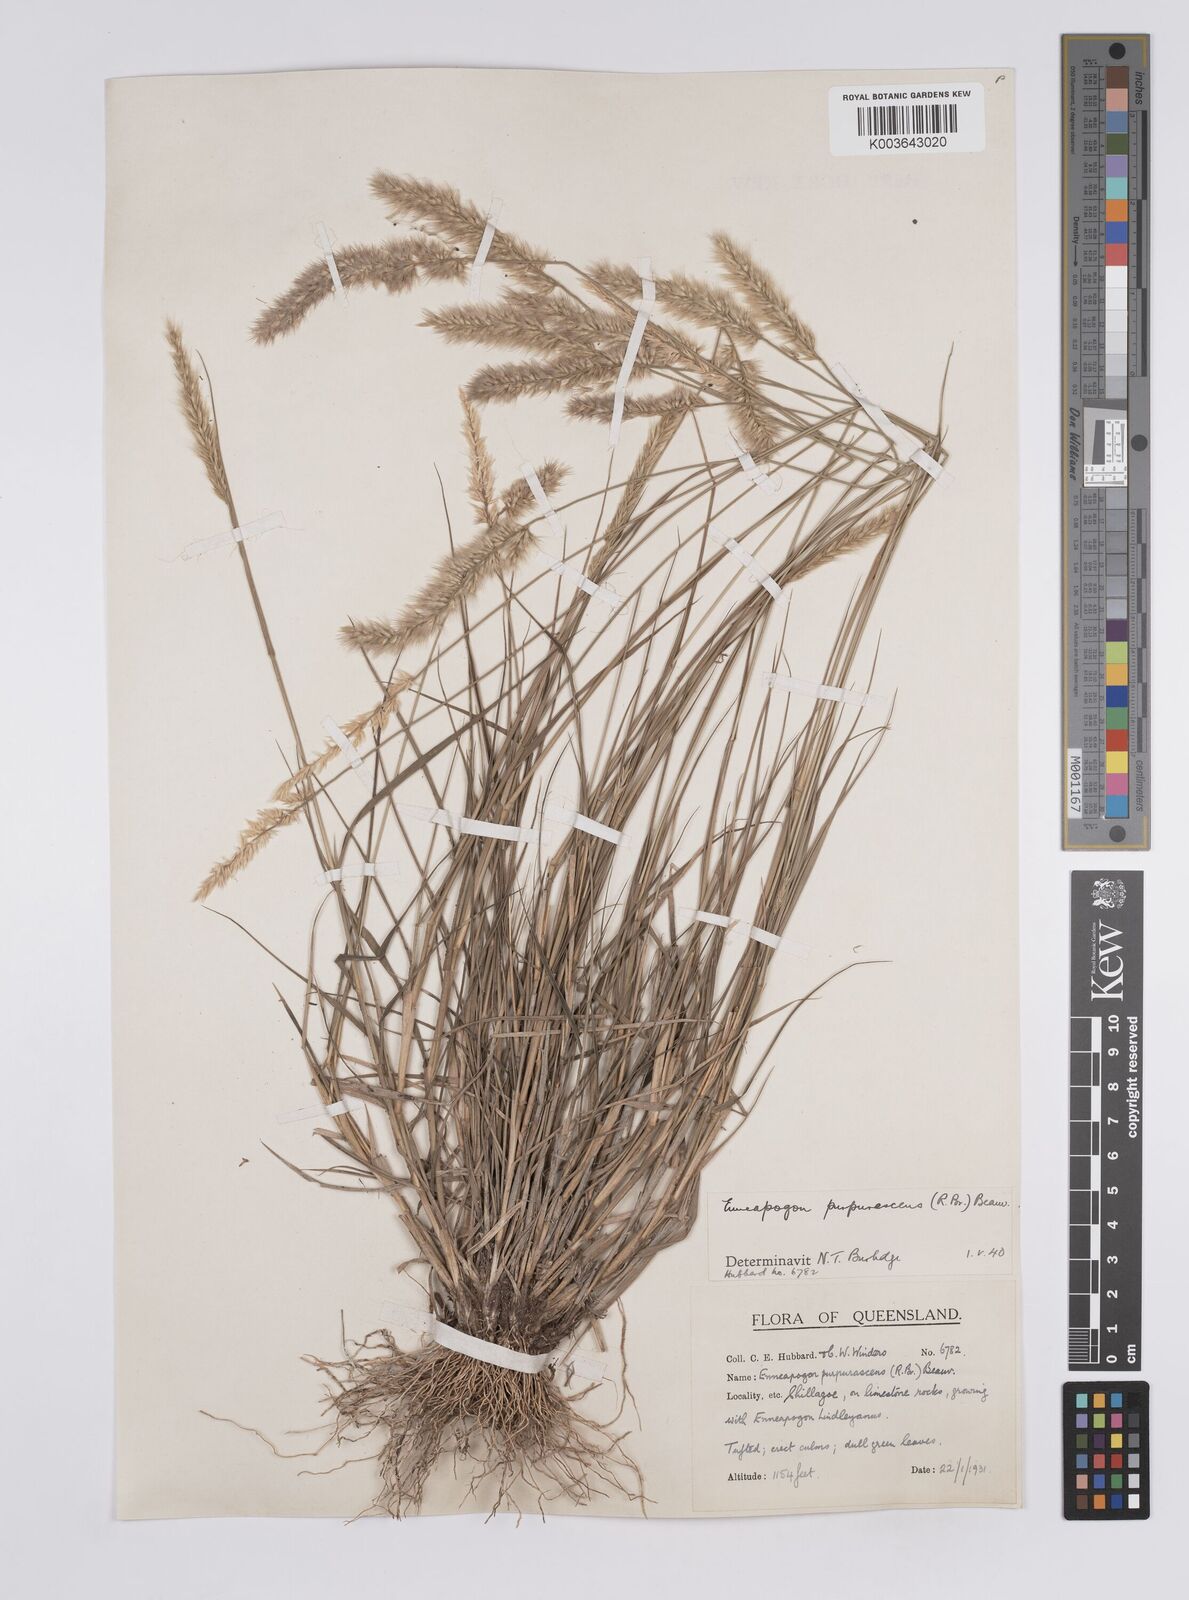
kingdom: Plantae
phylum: Tracheophyta
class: Liliopsida
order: Poales
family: Poaceae
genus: Enneapogon
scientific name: Enneapogon purpurascens
